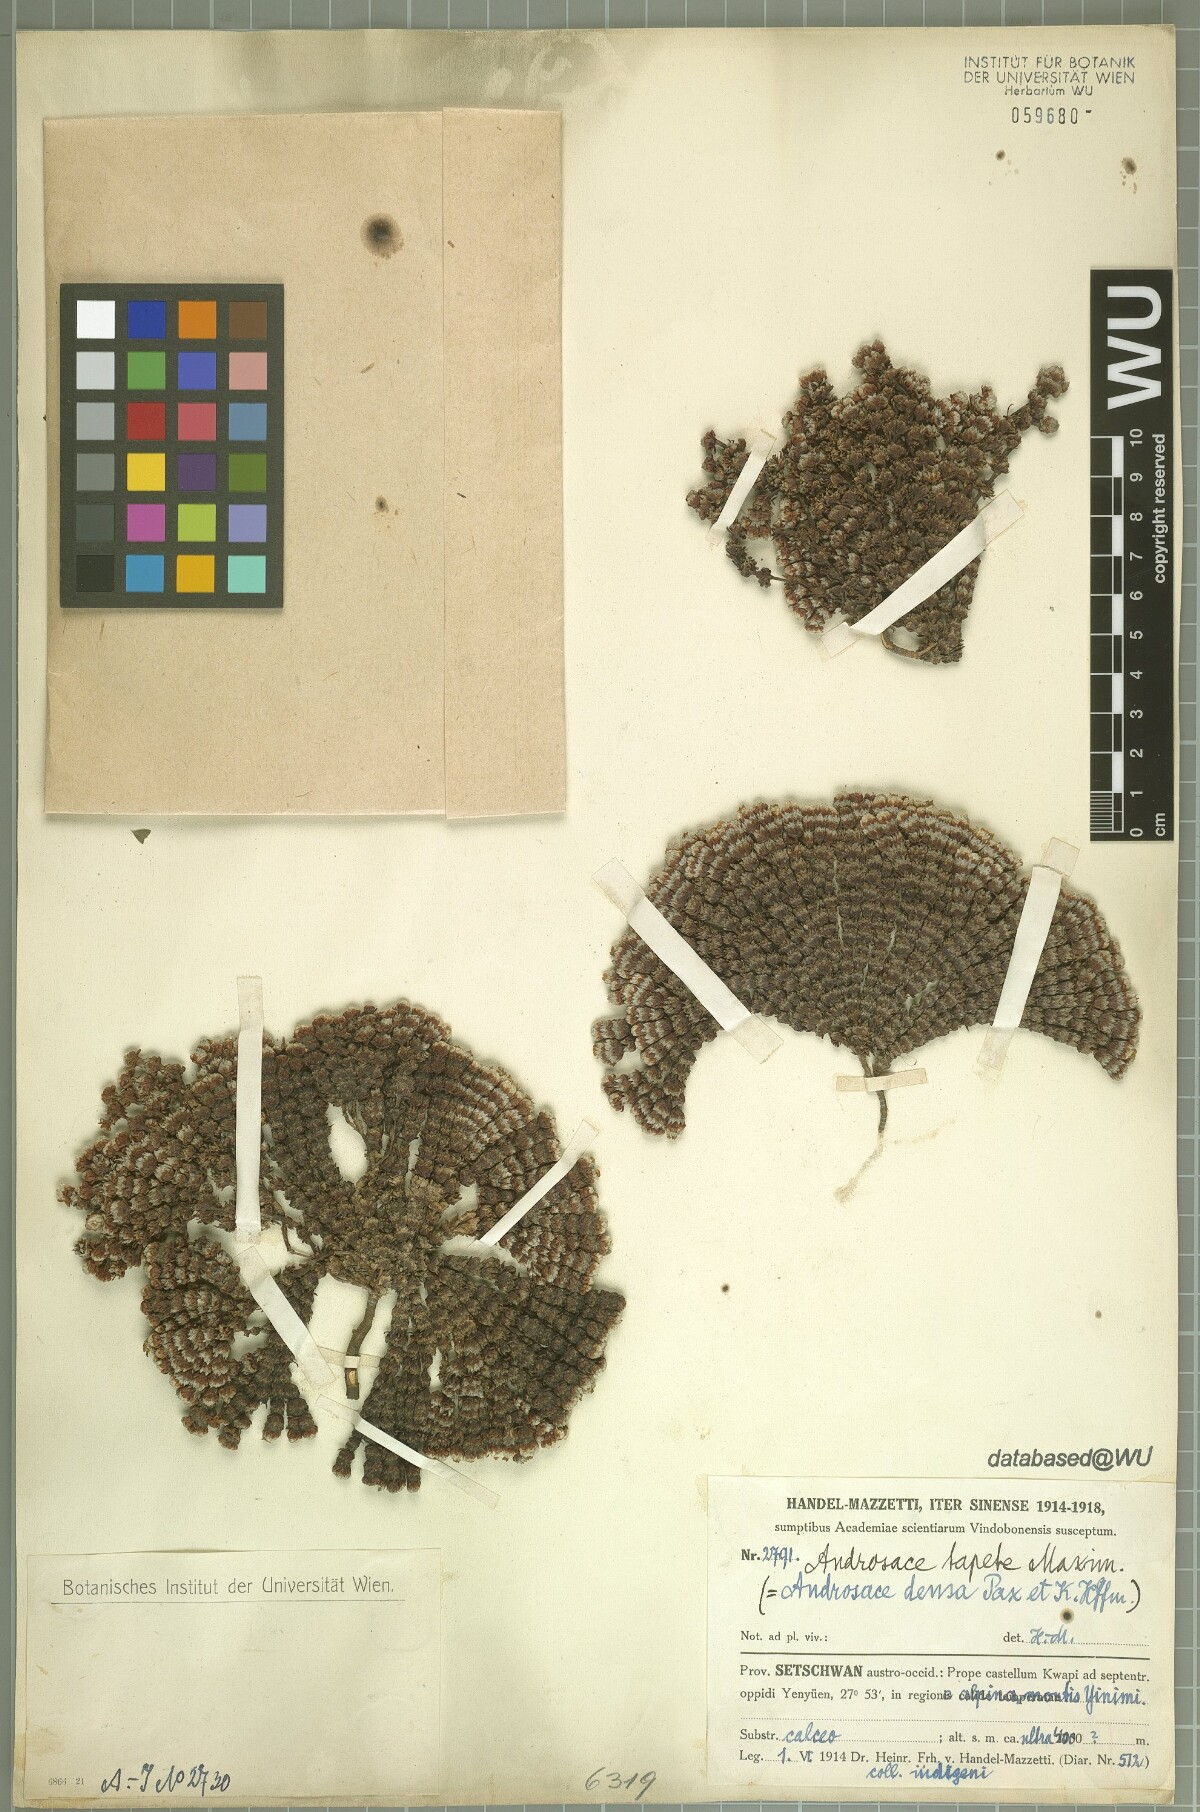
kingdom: Plantae
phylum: Tracheophyta
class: Magnoliopsida
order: Ericales
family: Primulaceae
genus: Androsace
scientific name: Androsace tapete
